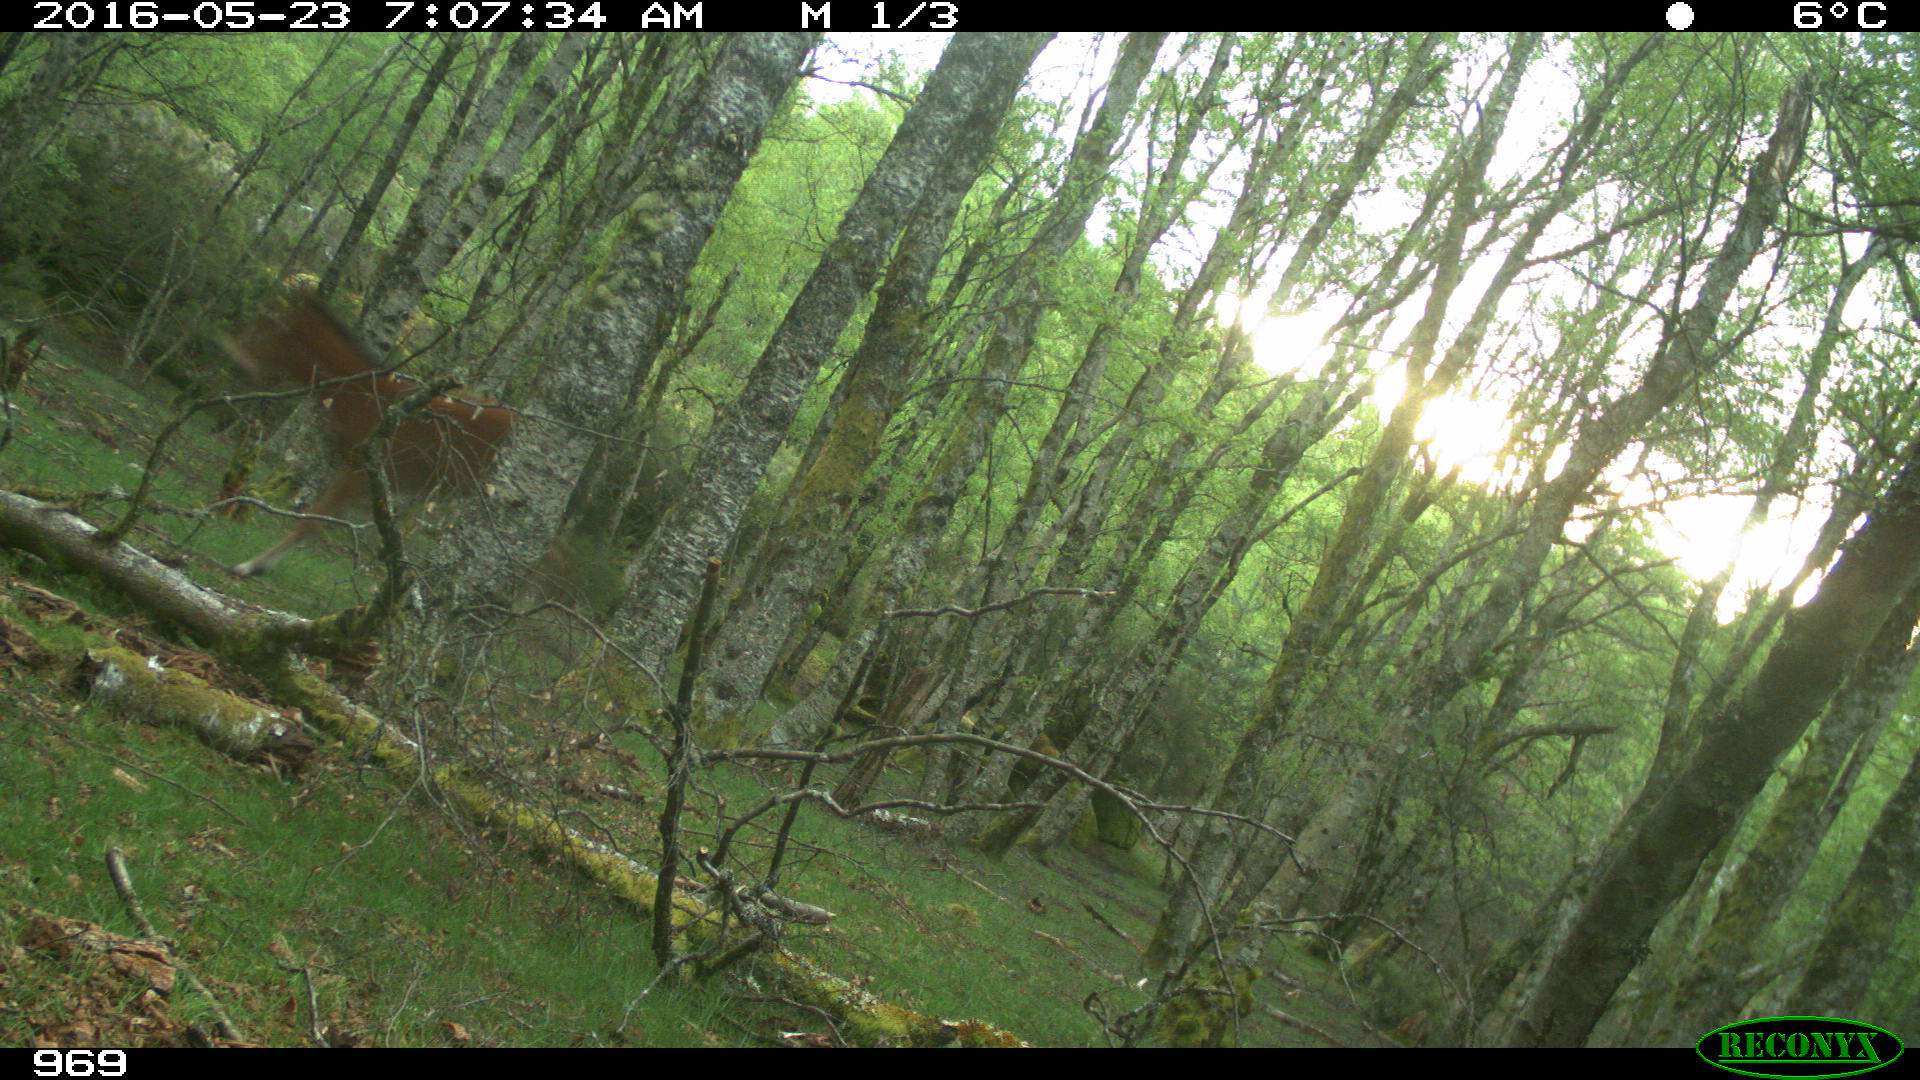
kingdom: Animalia
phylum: Chordata
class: Mammalia
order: Perissodactyla
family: Equidae
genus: Equus
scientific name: Equus caballus
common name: Horse
